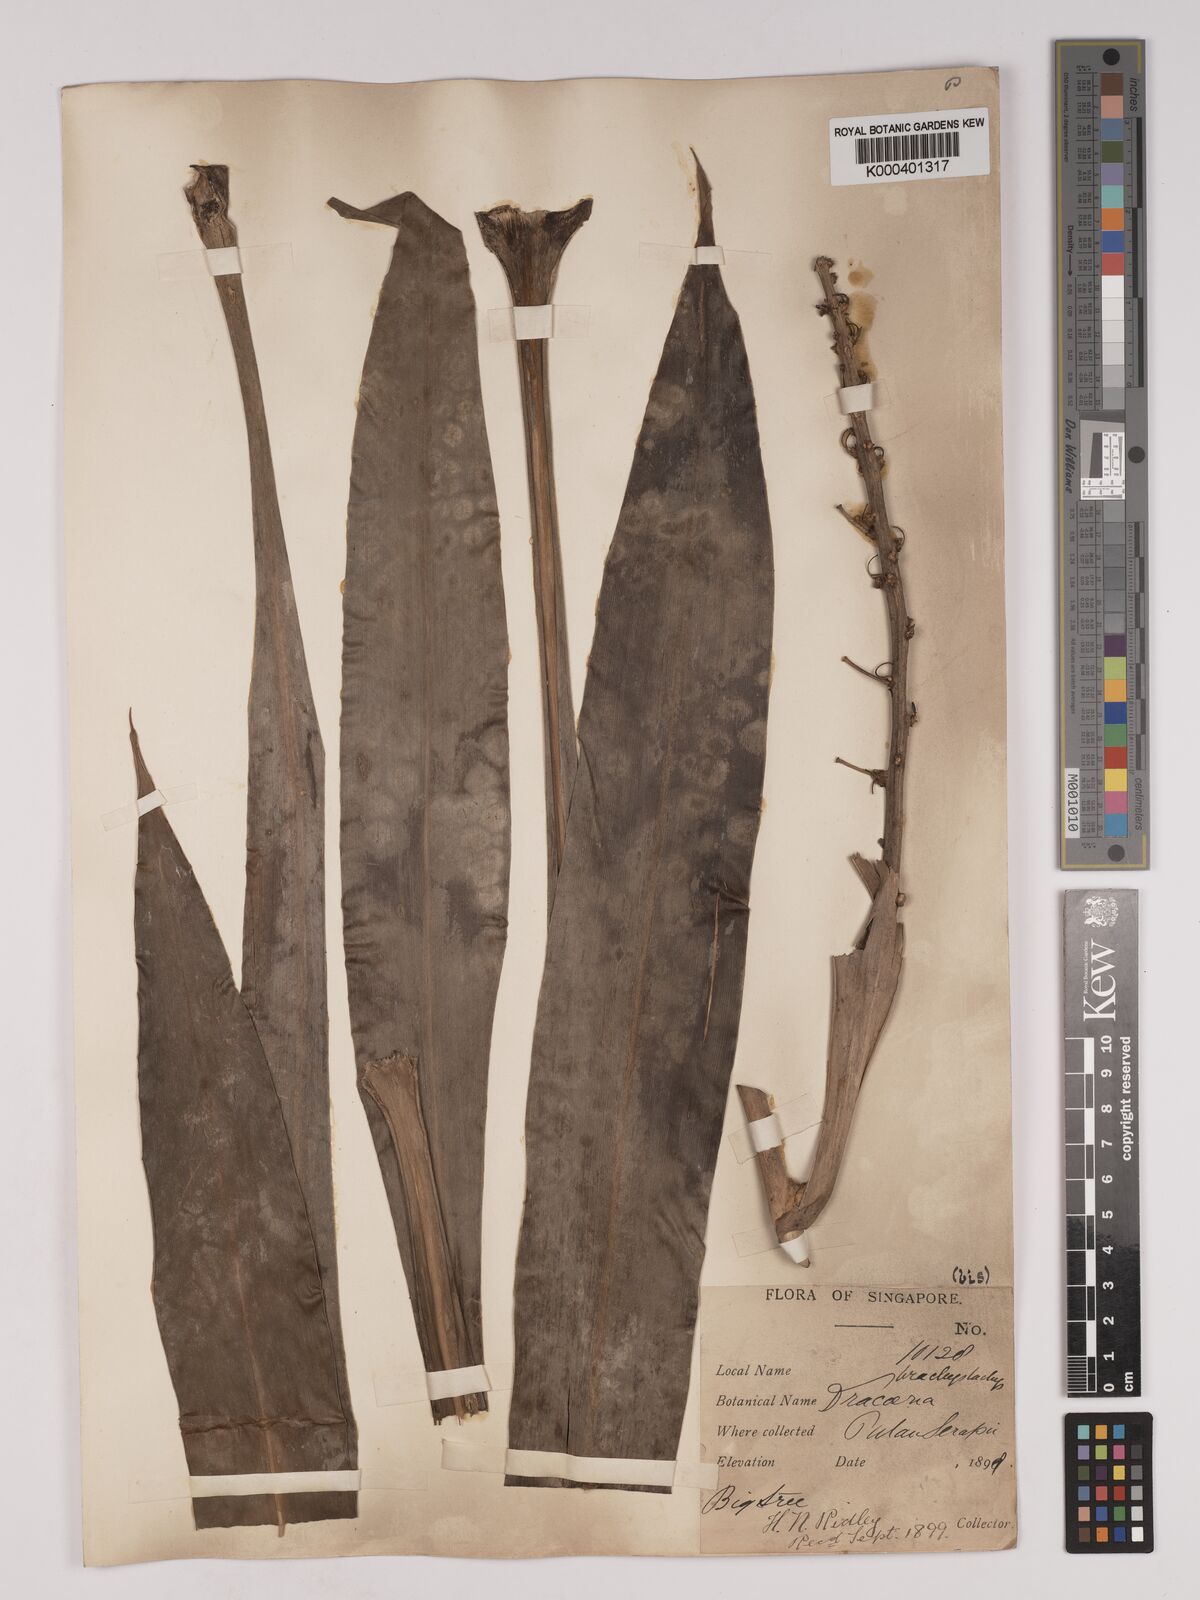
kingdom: Plantae
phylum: Tracheophyta
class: Liliopsida
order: Asparagales
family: Asparagaceae
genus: Dracaena
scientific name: Dracaena brachystachys
